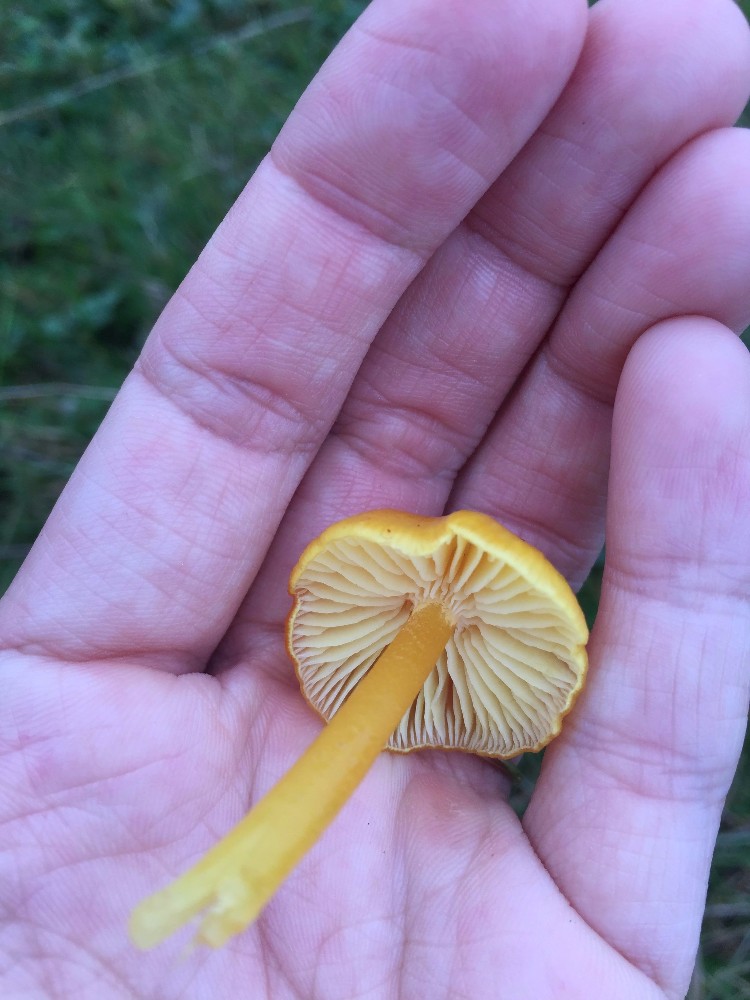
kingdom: Fungi
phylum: Basidiomycota
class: Agaricomycetes
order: Agaricales
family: Hygrophoraceae
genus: Hygrocybe
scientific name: Hygrocybe chlorophana
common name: gul vokshat
